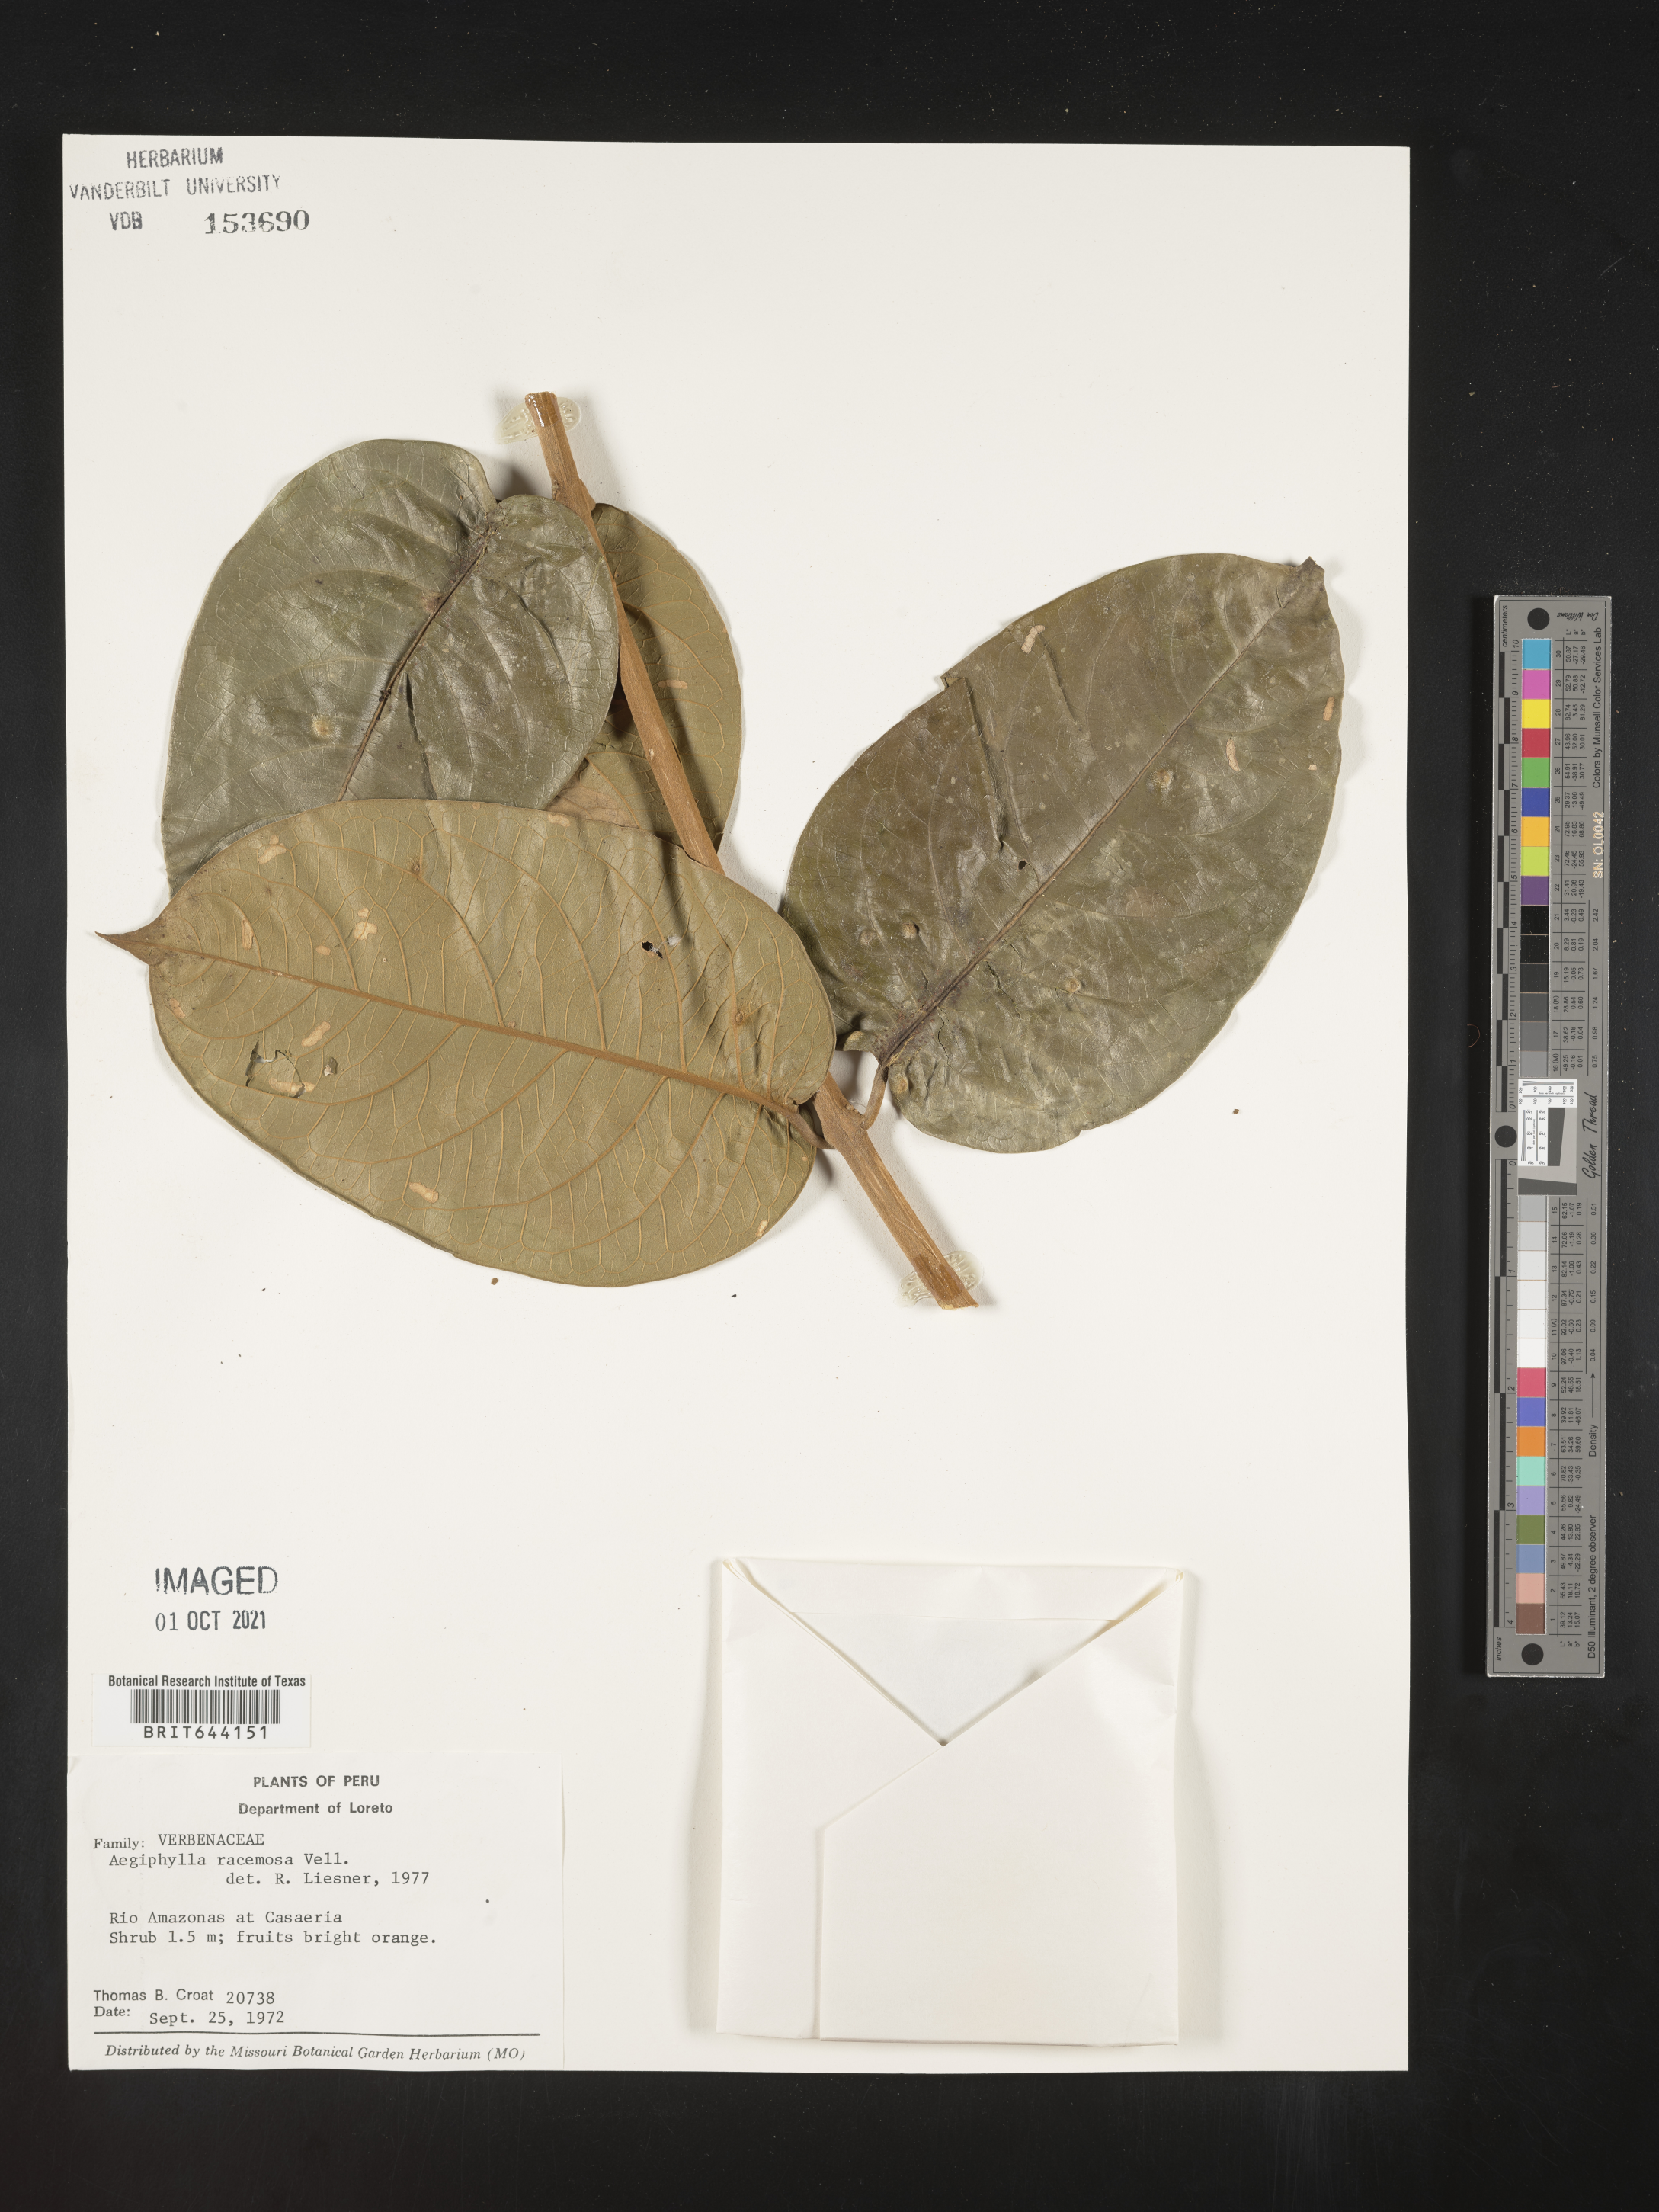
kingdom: Plantae
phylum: Tracheophyta
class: Magnoliopsida
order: Lamiales
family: Lamiaceae
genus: Aegiphila
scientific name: Aegiphila
